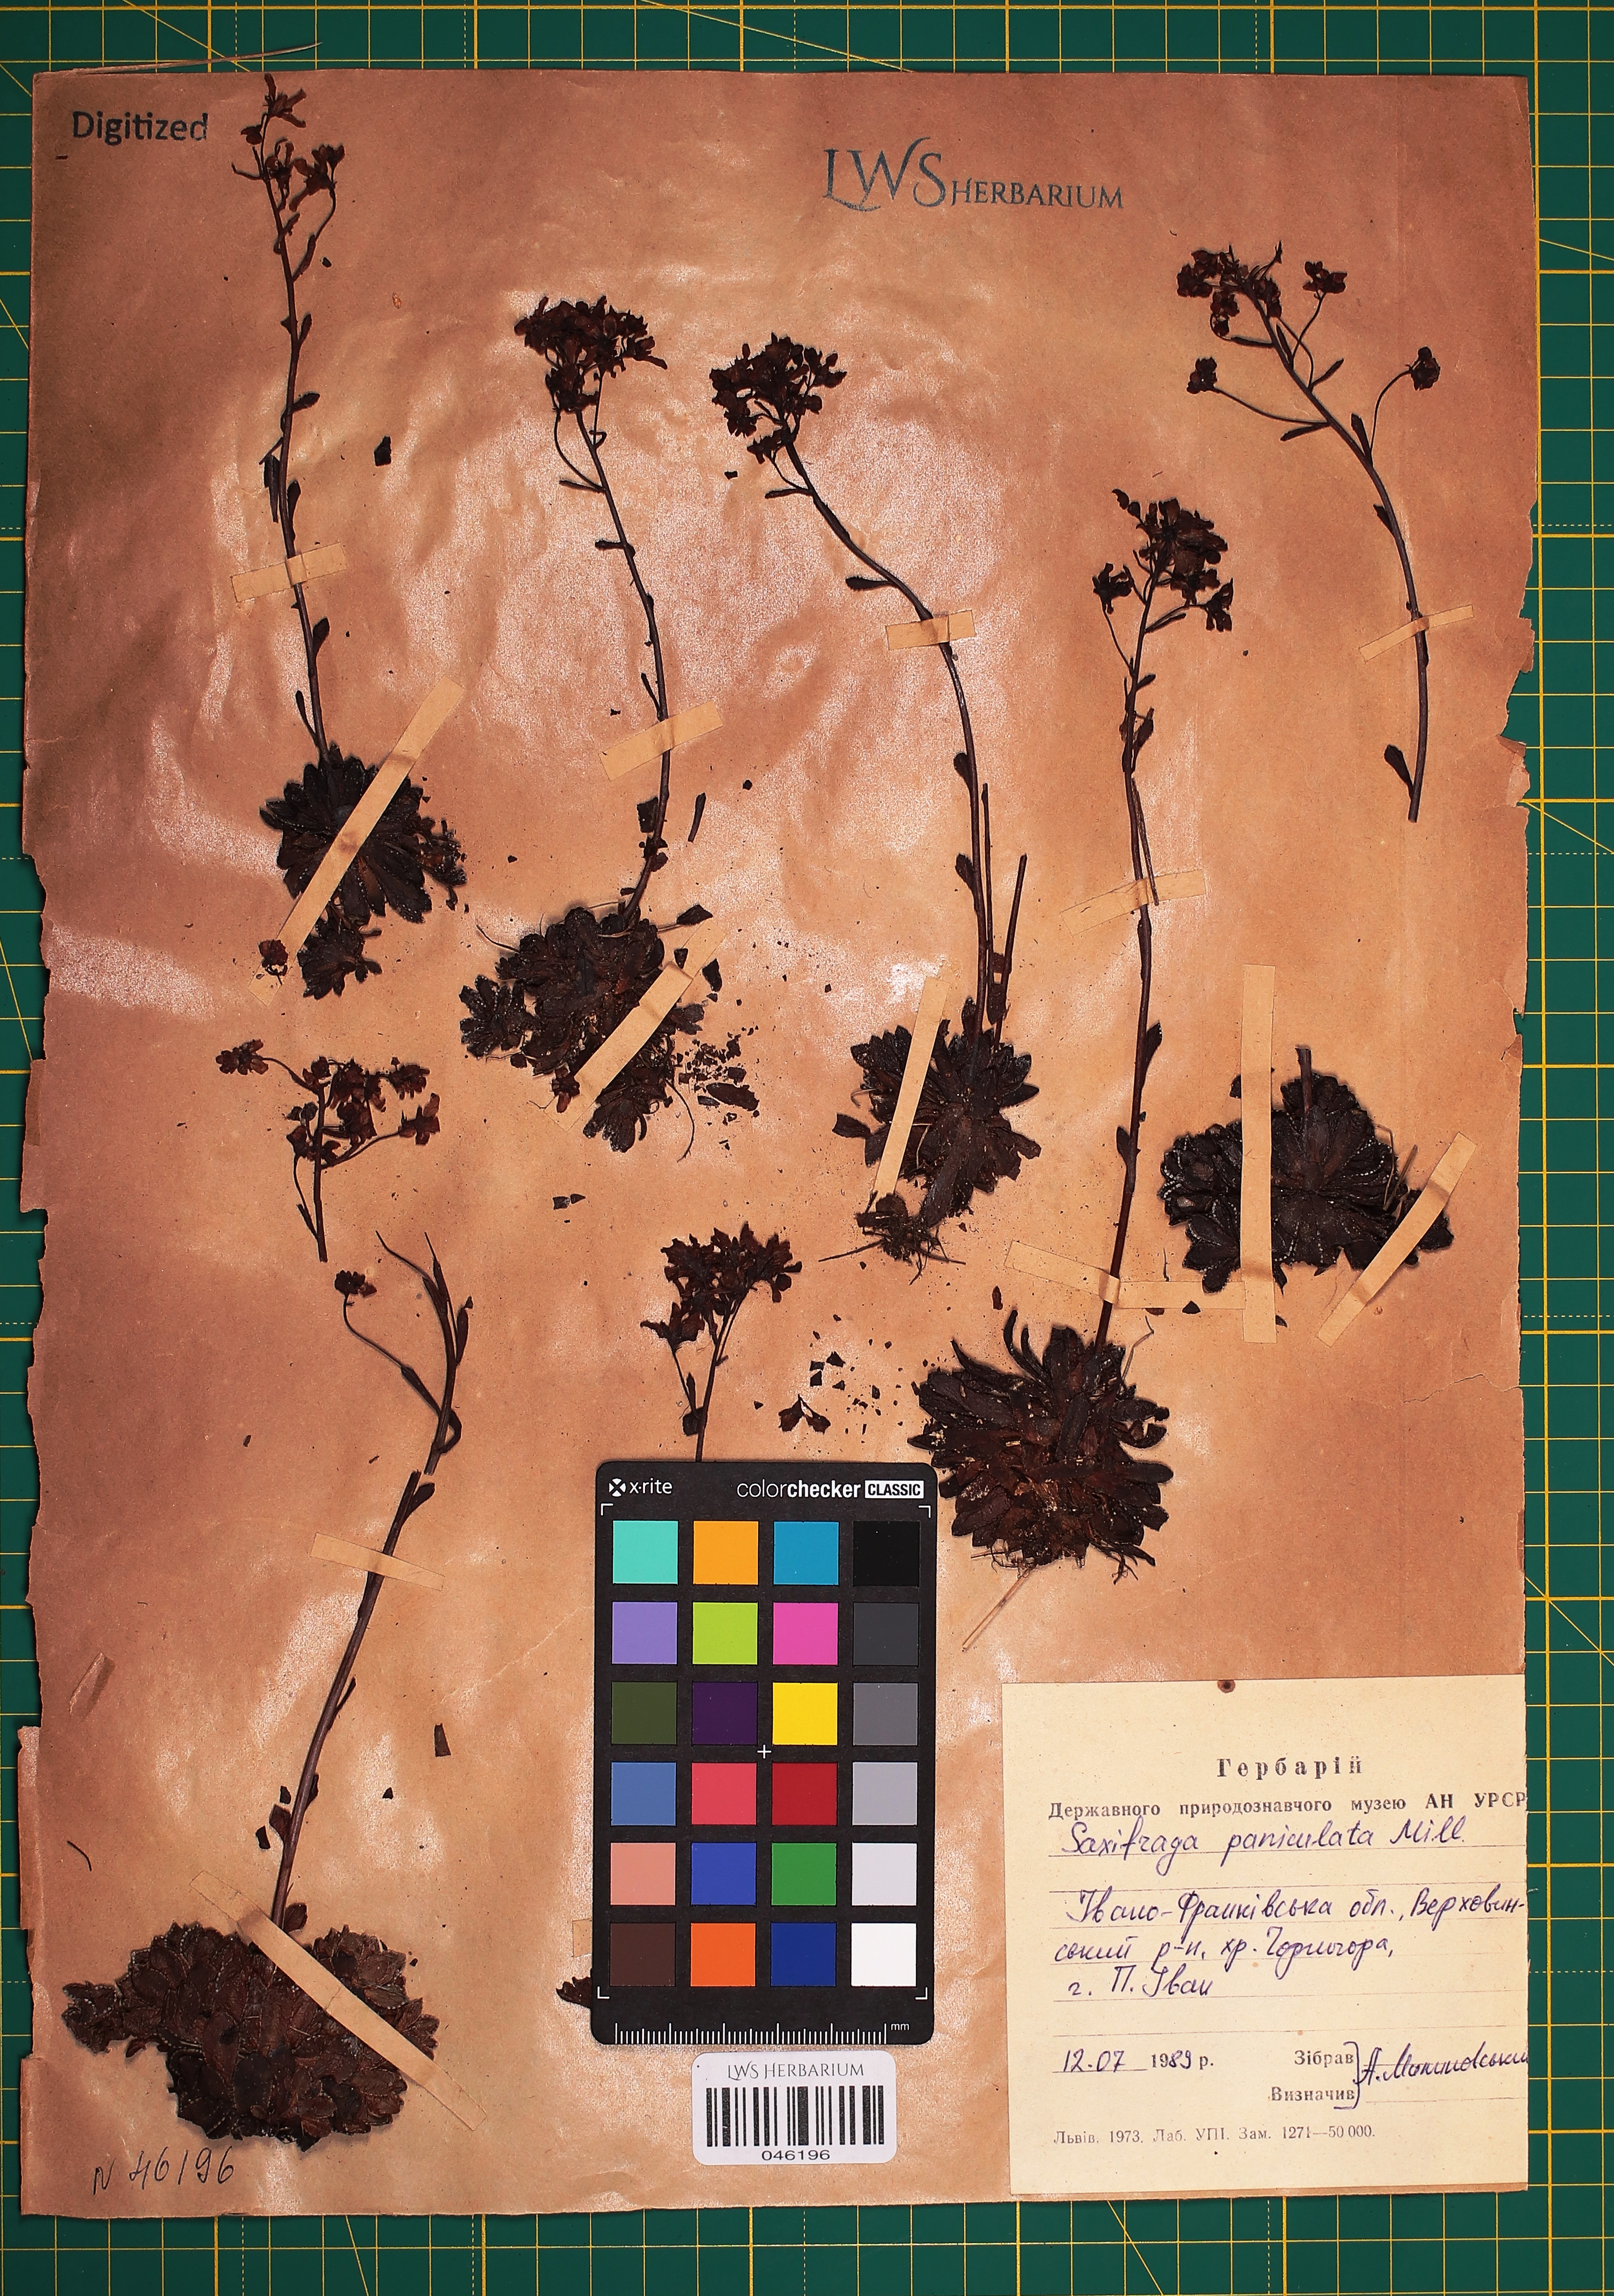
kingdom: Plantae
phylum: Tracheophyta
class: Magnoliopsida
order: Saxifragales
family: Saxifragaceae
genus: Saxifraga
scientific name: Saxifraga paniculata
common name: Livelong saxifrage
